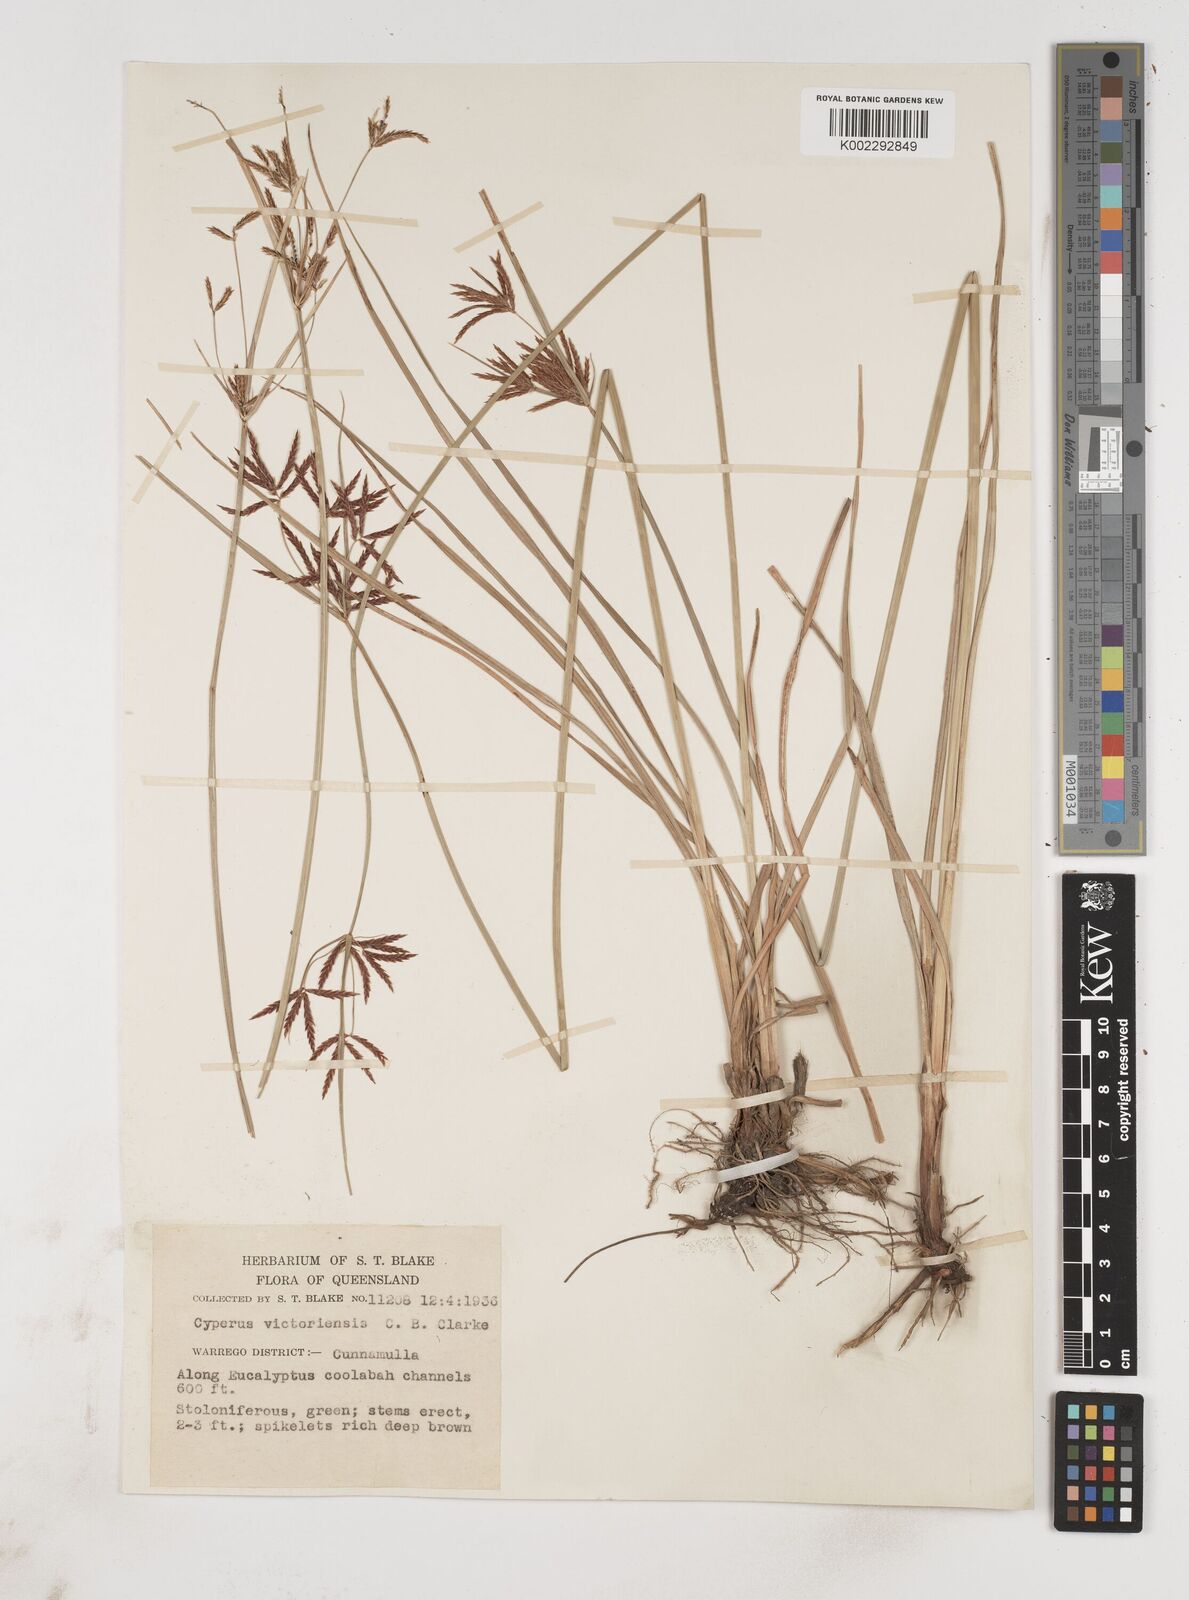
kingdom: Plantae
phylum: Tracheophyta
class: Liliopsida
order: Poales
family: Cyperaceae
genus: Cyperus
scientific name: Cyperus victoriensis
